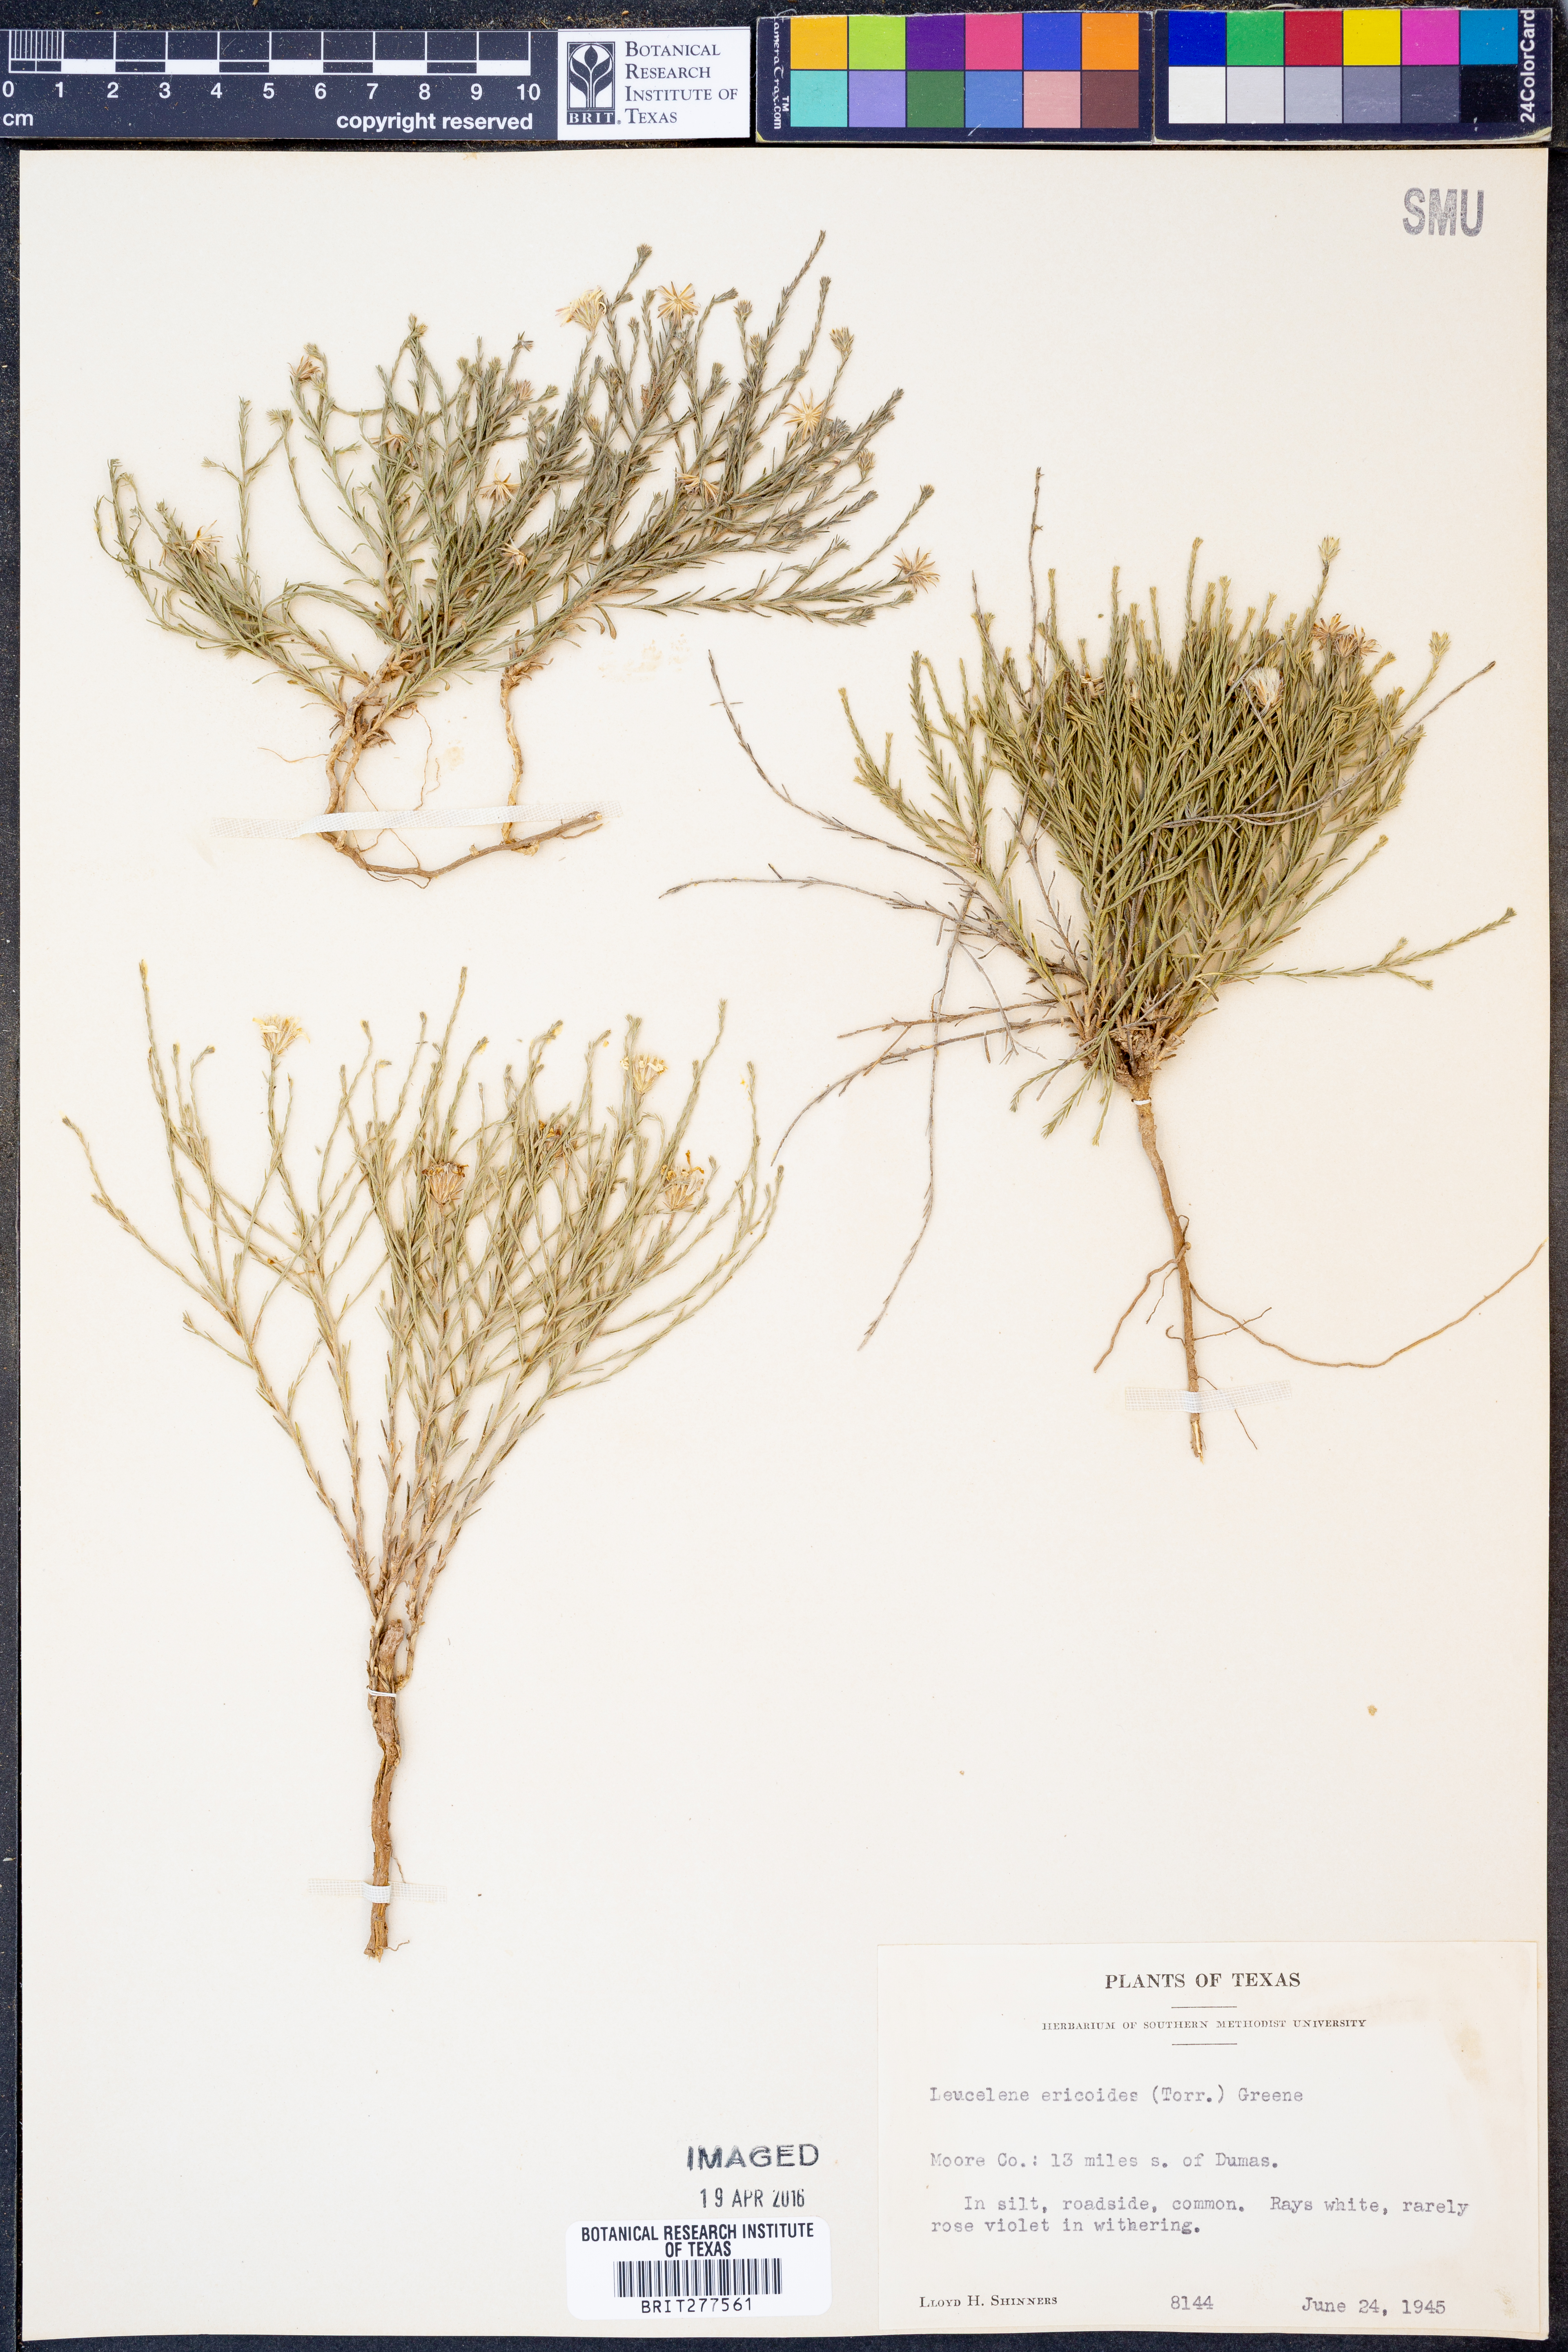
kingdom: Plantae
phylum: Tracheophyta
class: Magnoliopsida
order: Asterales
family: Asteraceae
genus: Chaetopappa
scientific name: Chaetopappa ericoides
